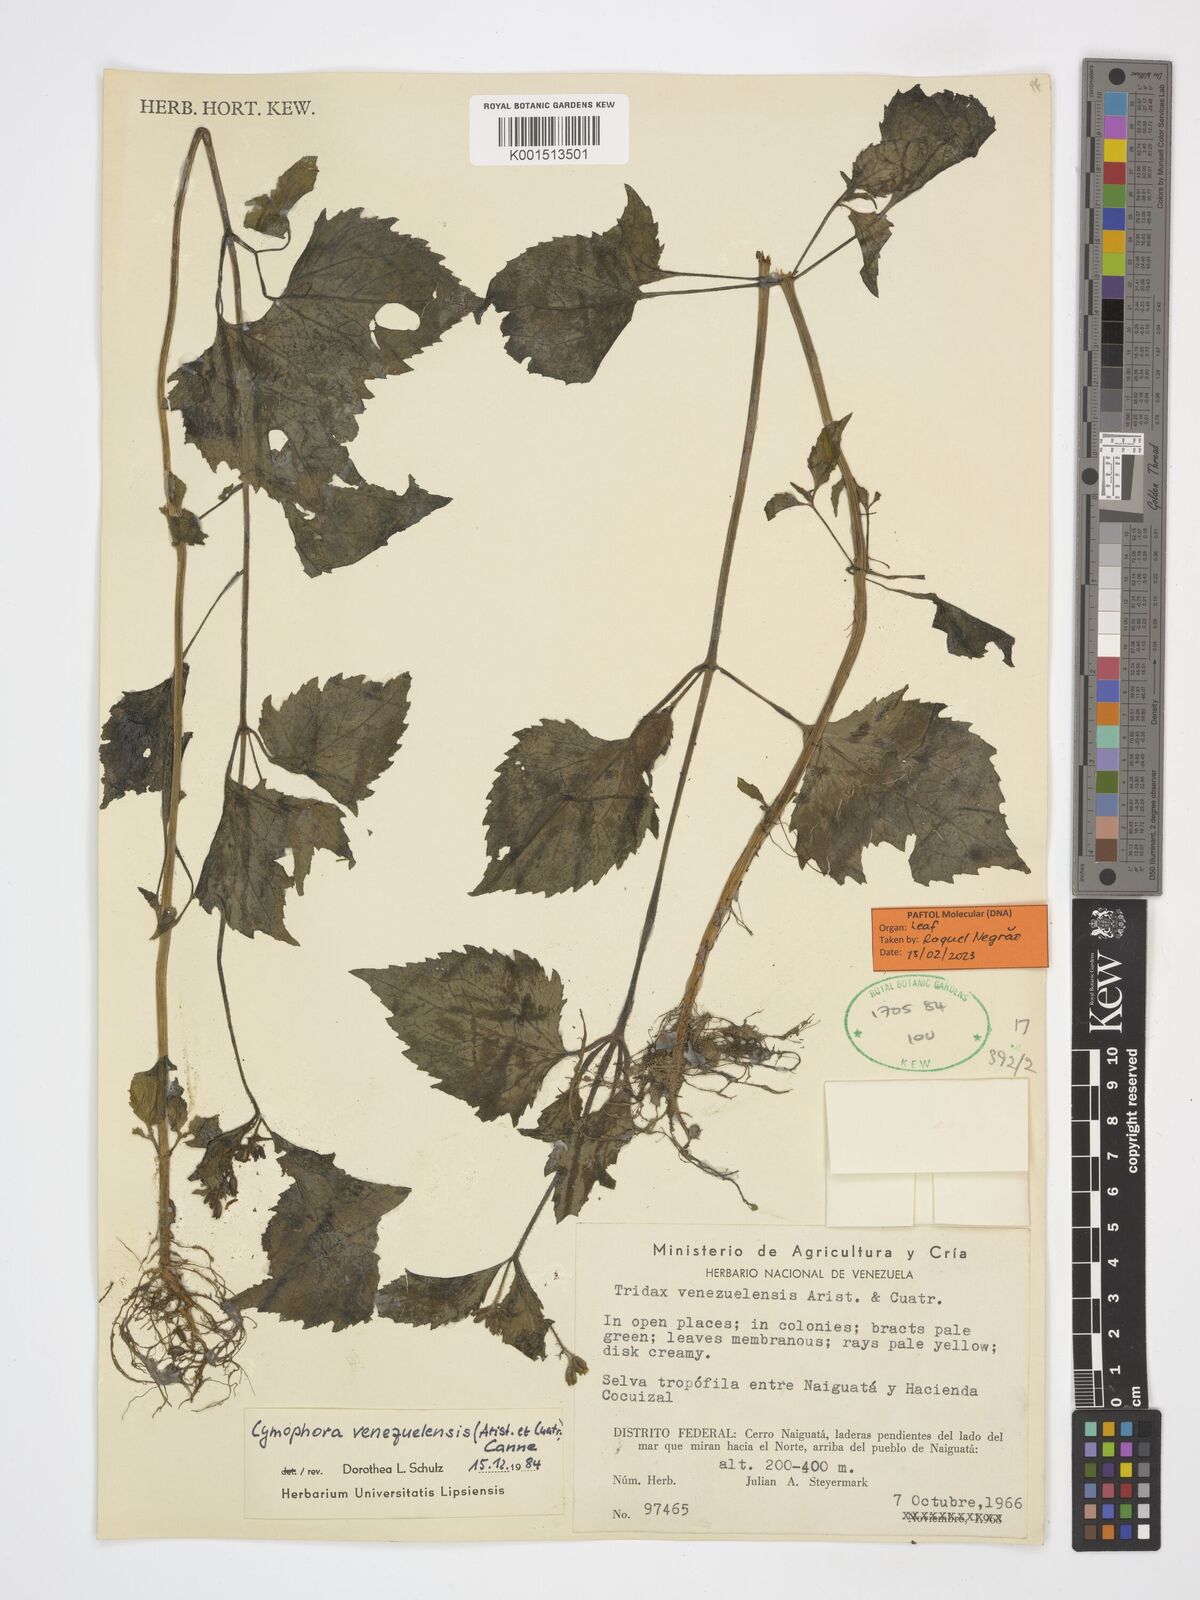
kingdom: Plantae
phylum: Tracheophyta
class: Magnoliopsida
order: Asterales
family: Asteraceae
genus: Cymophora
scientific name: Cymophora venezuelensis
